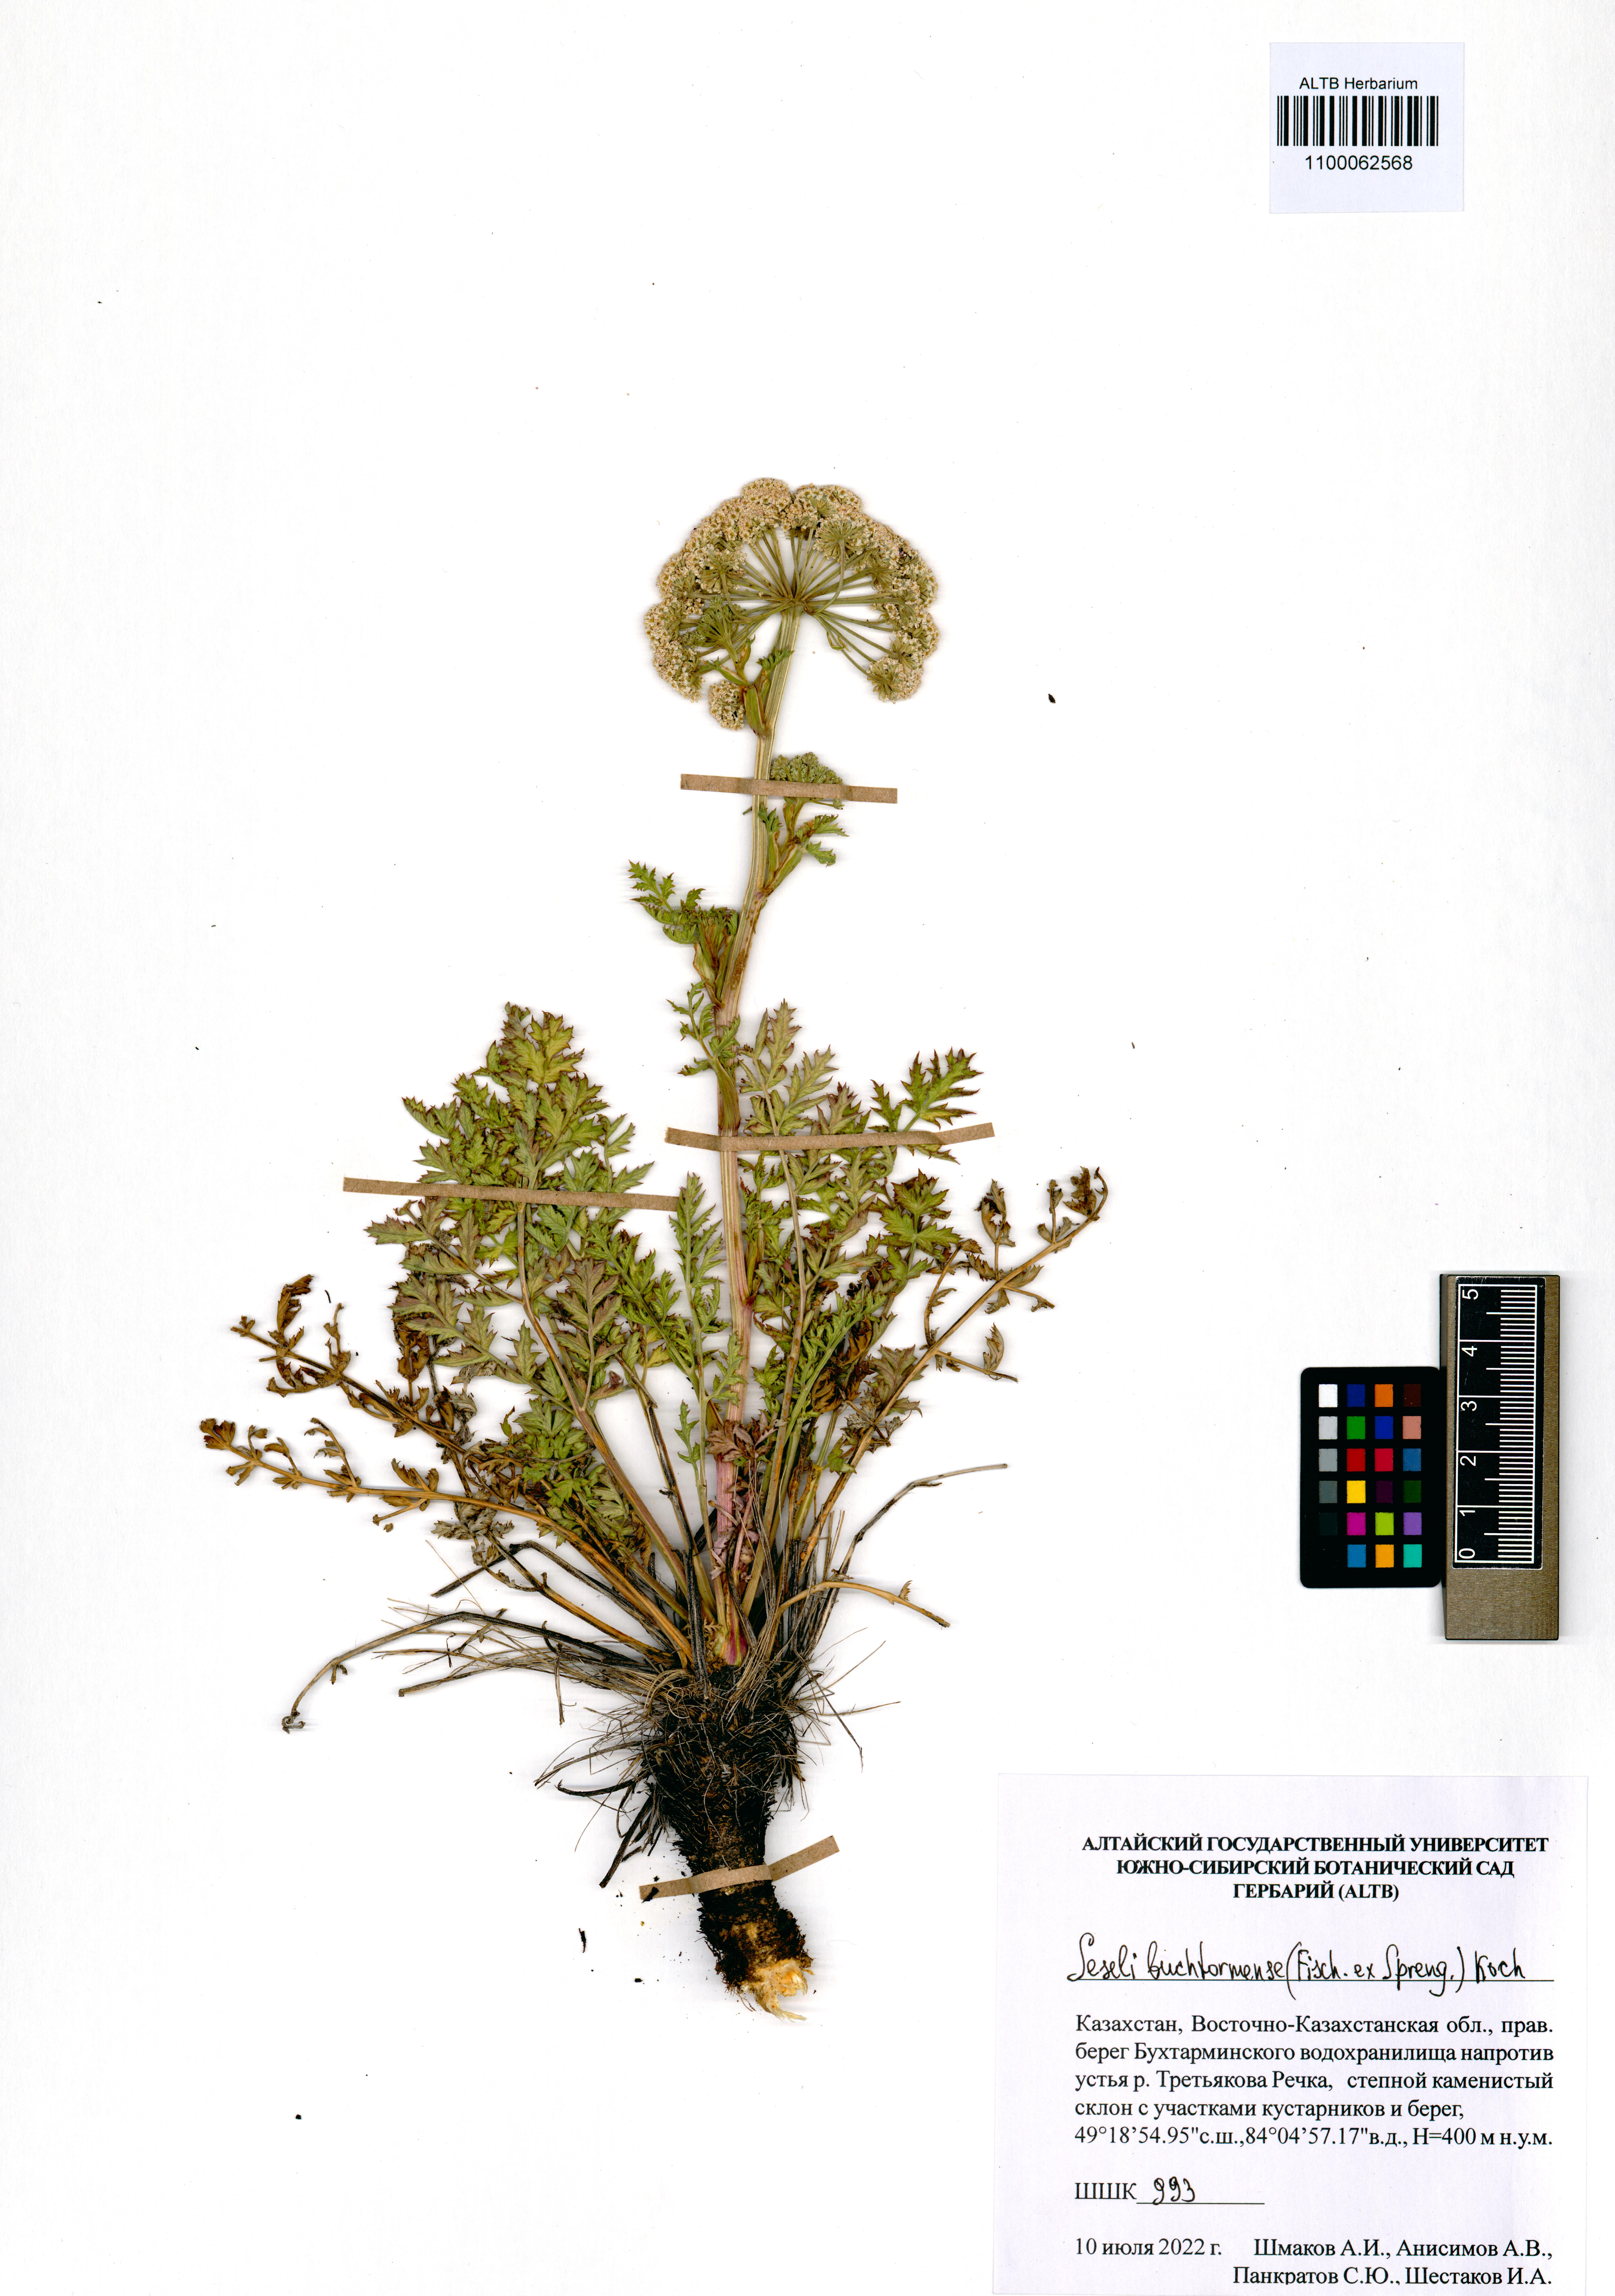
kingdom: Plantae
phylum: Tracheophyta
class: Magnoliopsida
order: Apiales
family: Apiaceae
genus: Seseli
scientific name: Seseli buchtormense
